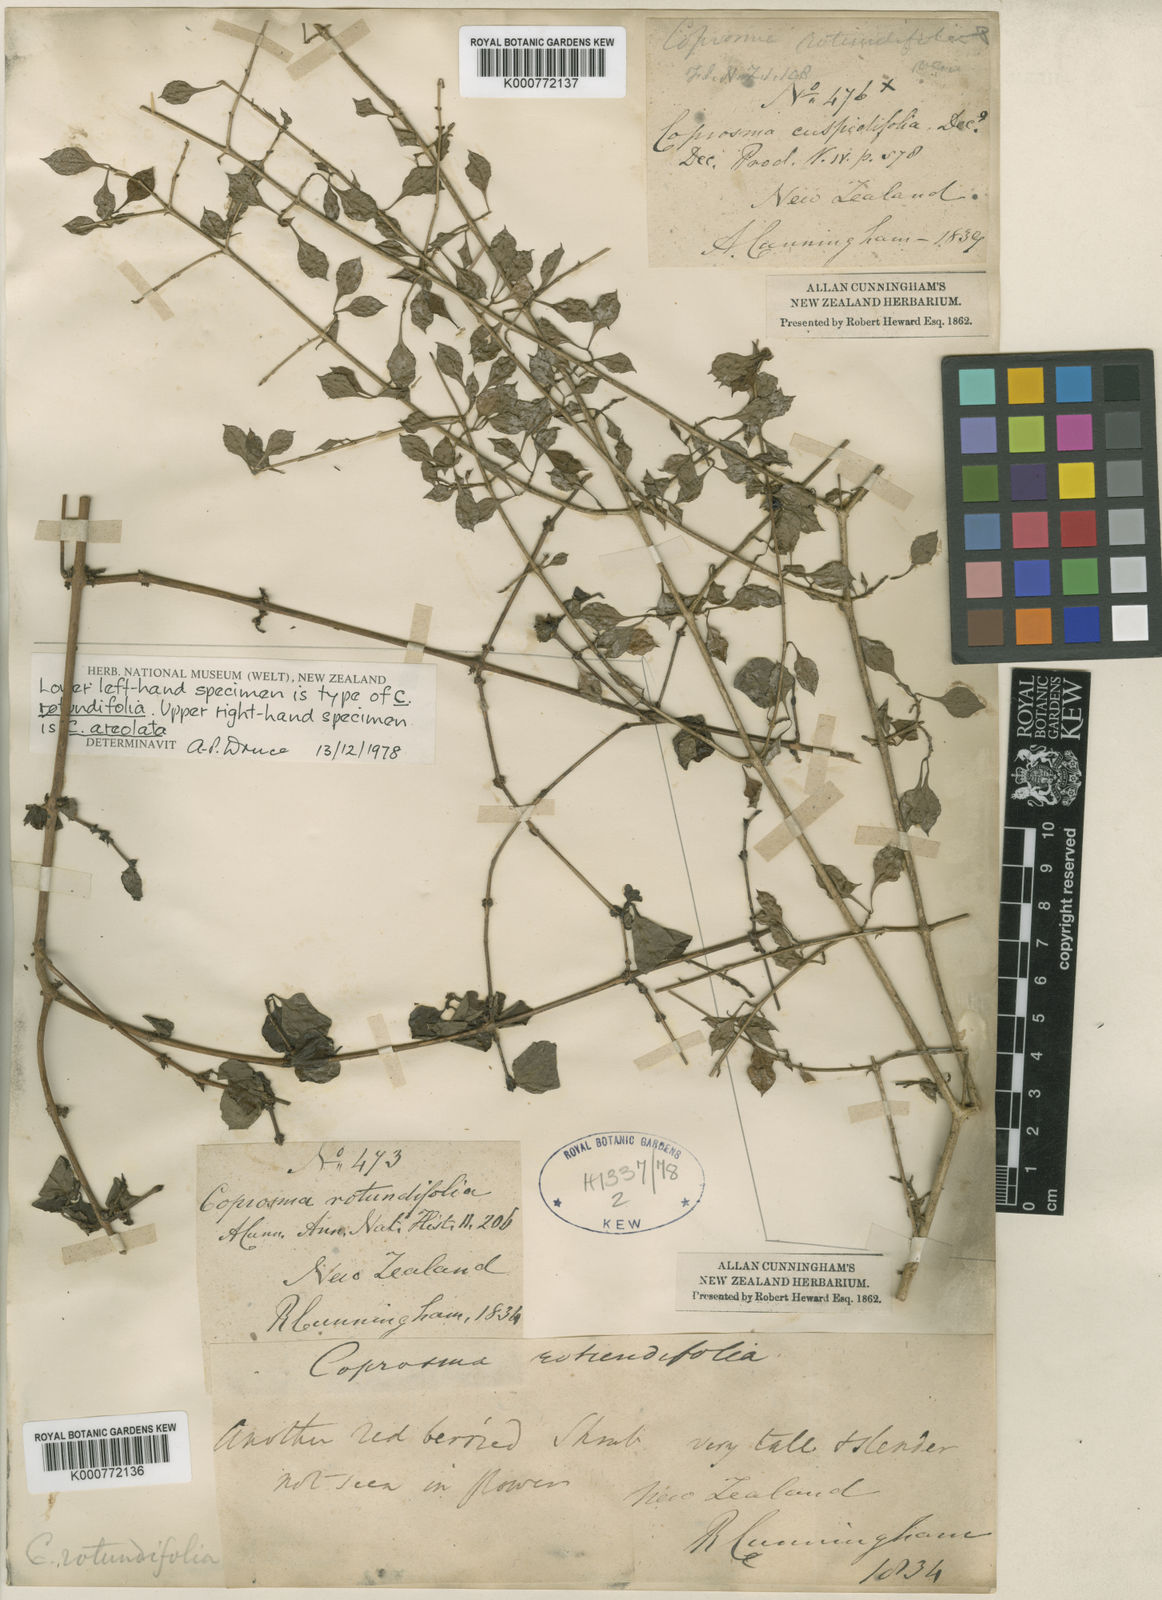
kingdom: Plantae
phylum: Tracheophyta
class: Magnoliopsida
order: Gentianales
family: Rubiaceae
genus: Coprosma
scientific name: Coprosma rotundifolia
